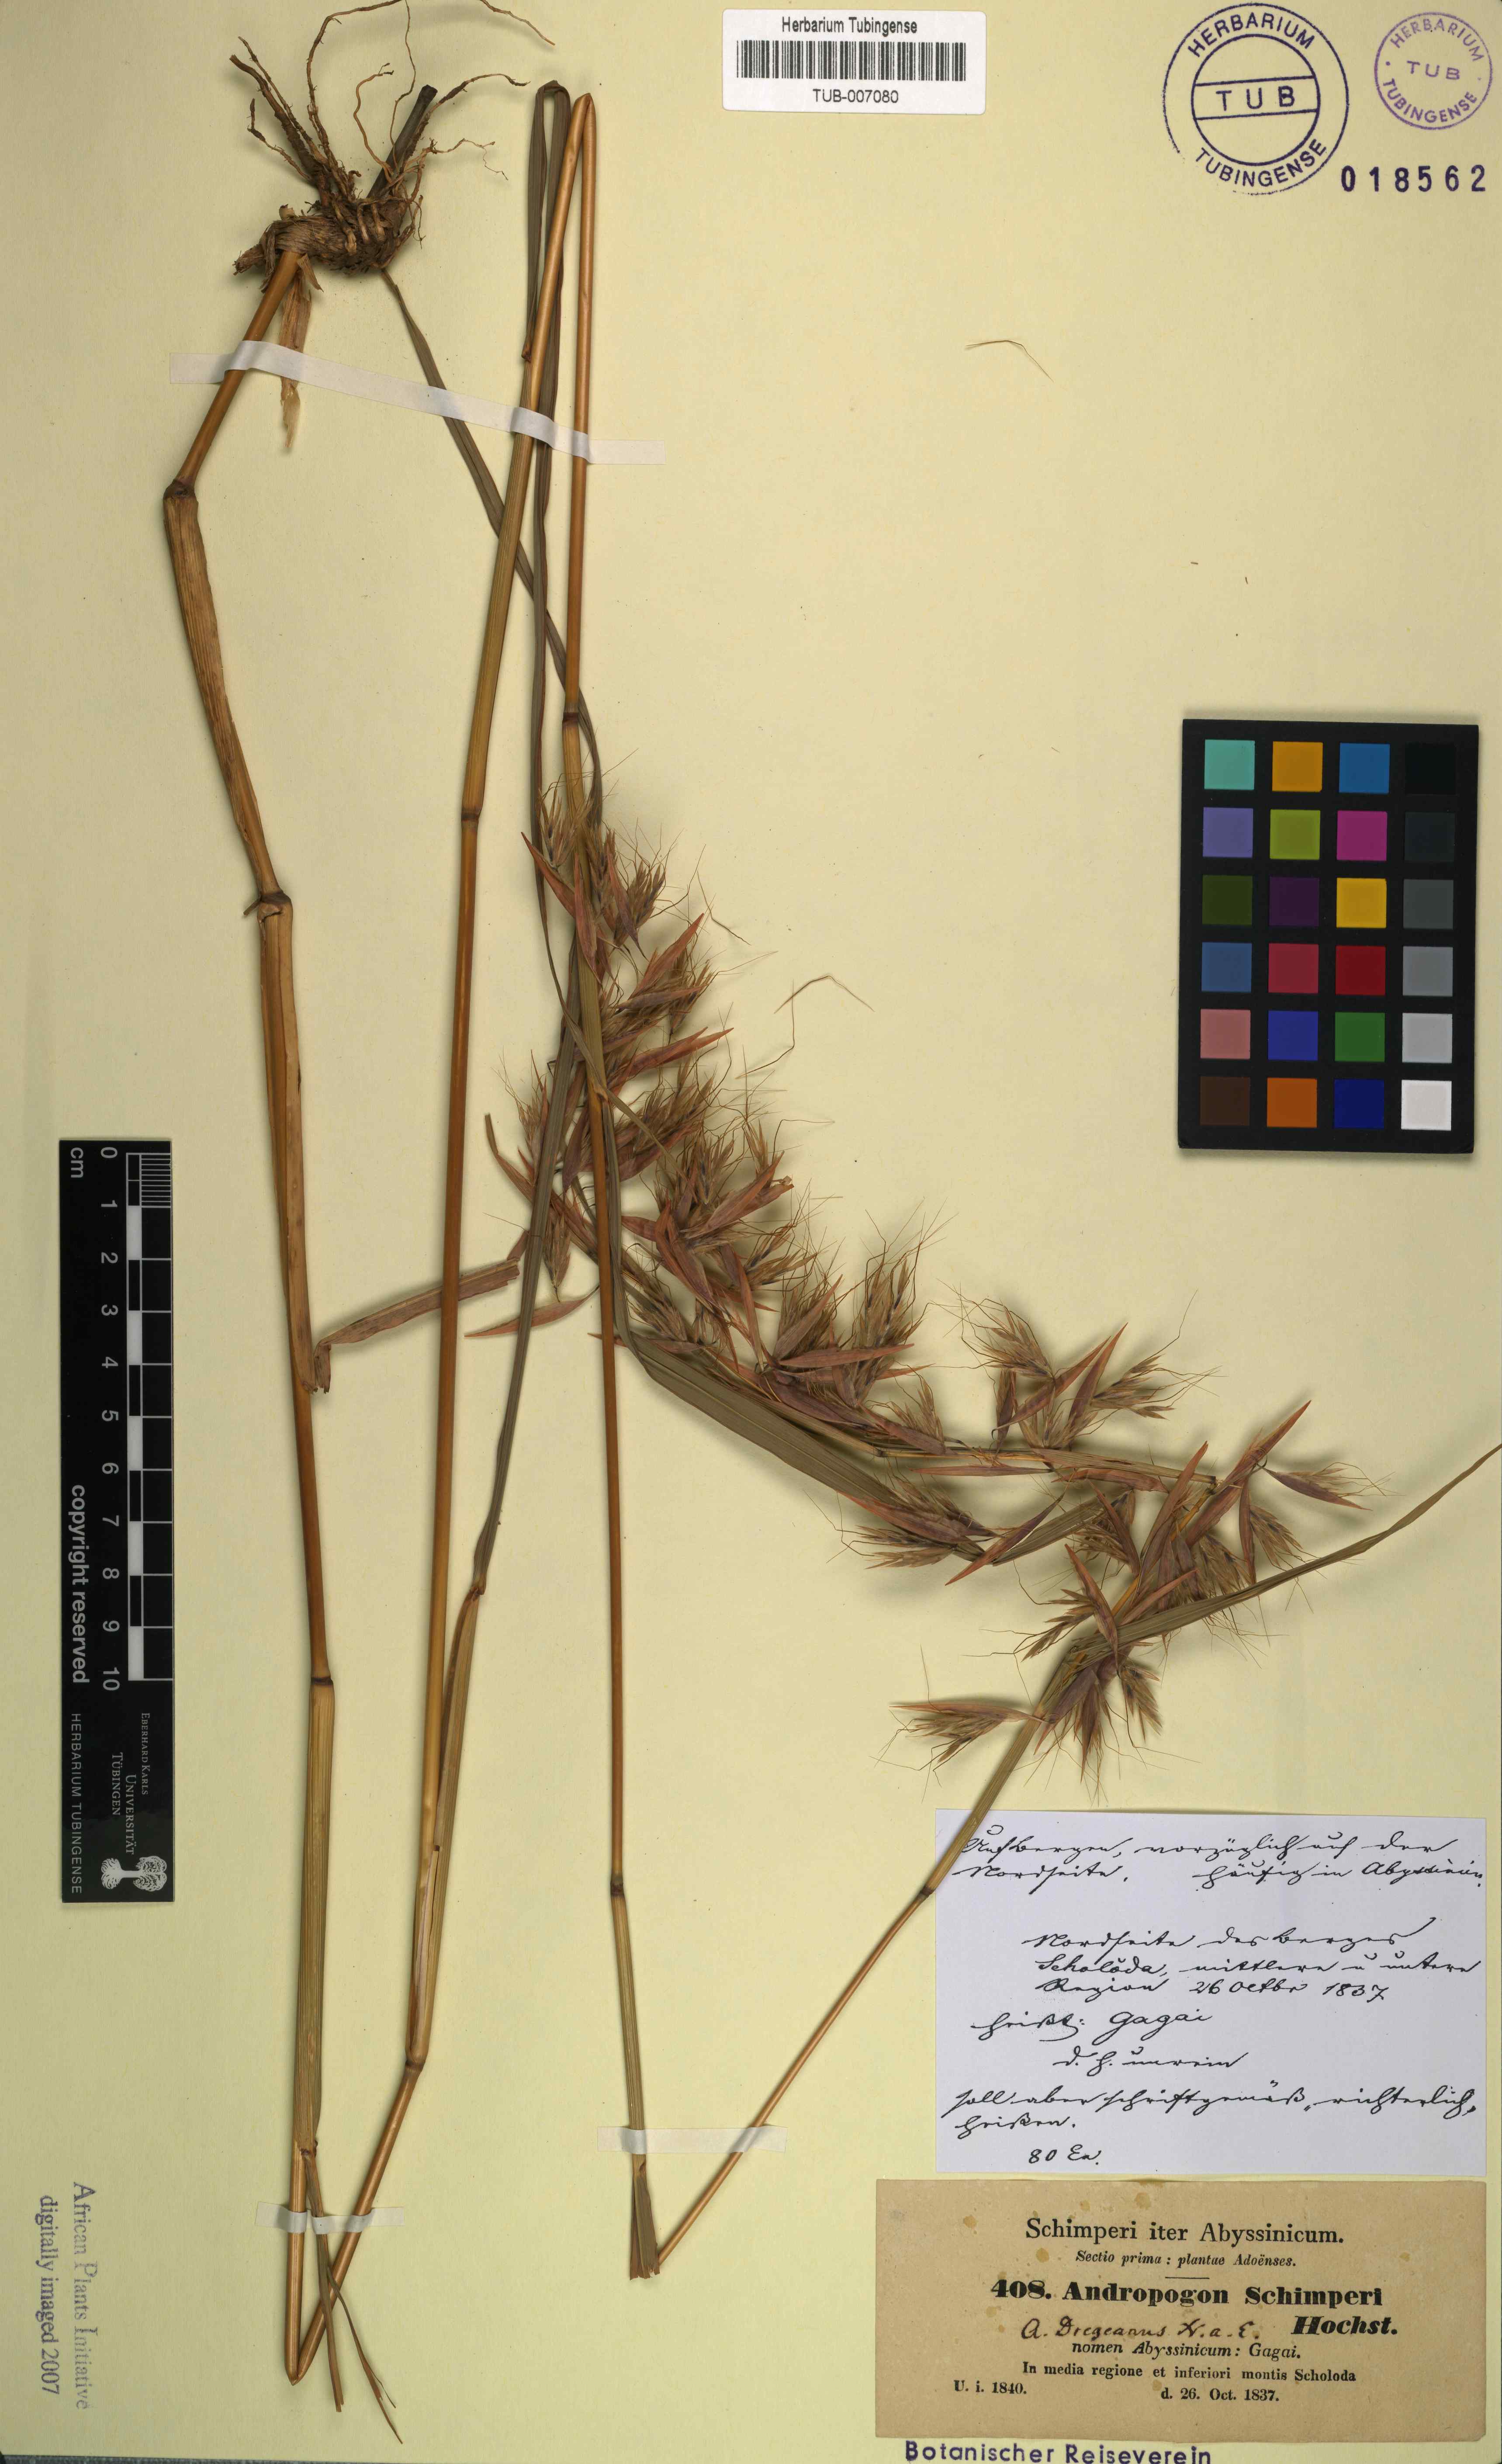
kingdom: Plantae
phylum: Tracheophyta
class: Liliopsida
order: Poales
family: Poaceae
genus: Hyparrhenia
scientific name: Hyparrhenia schimperi
